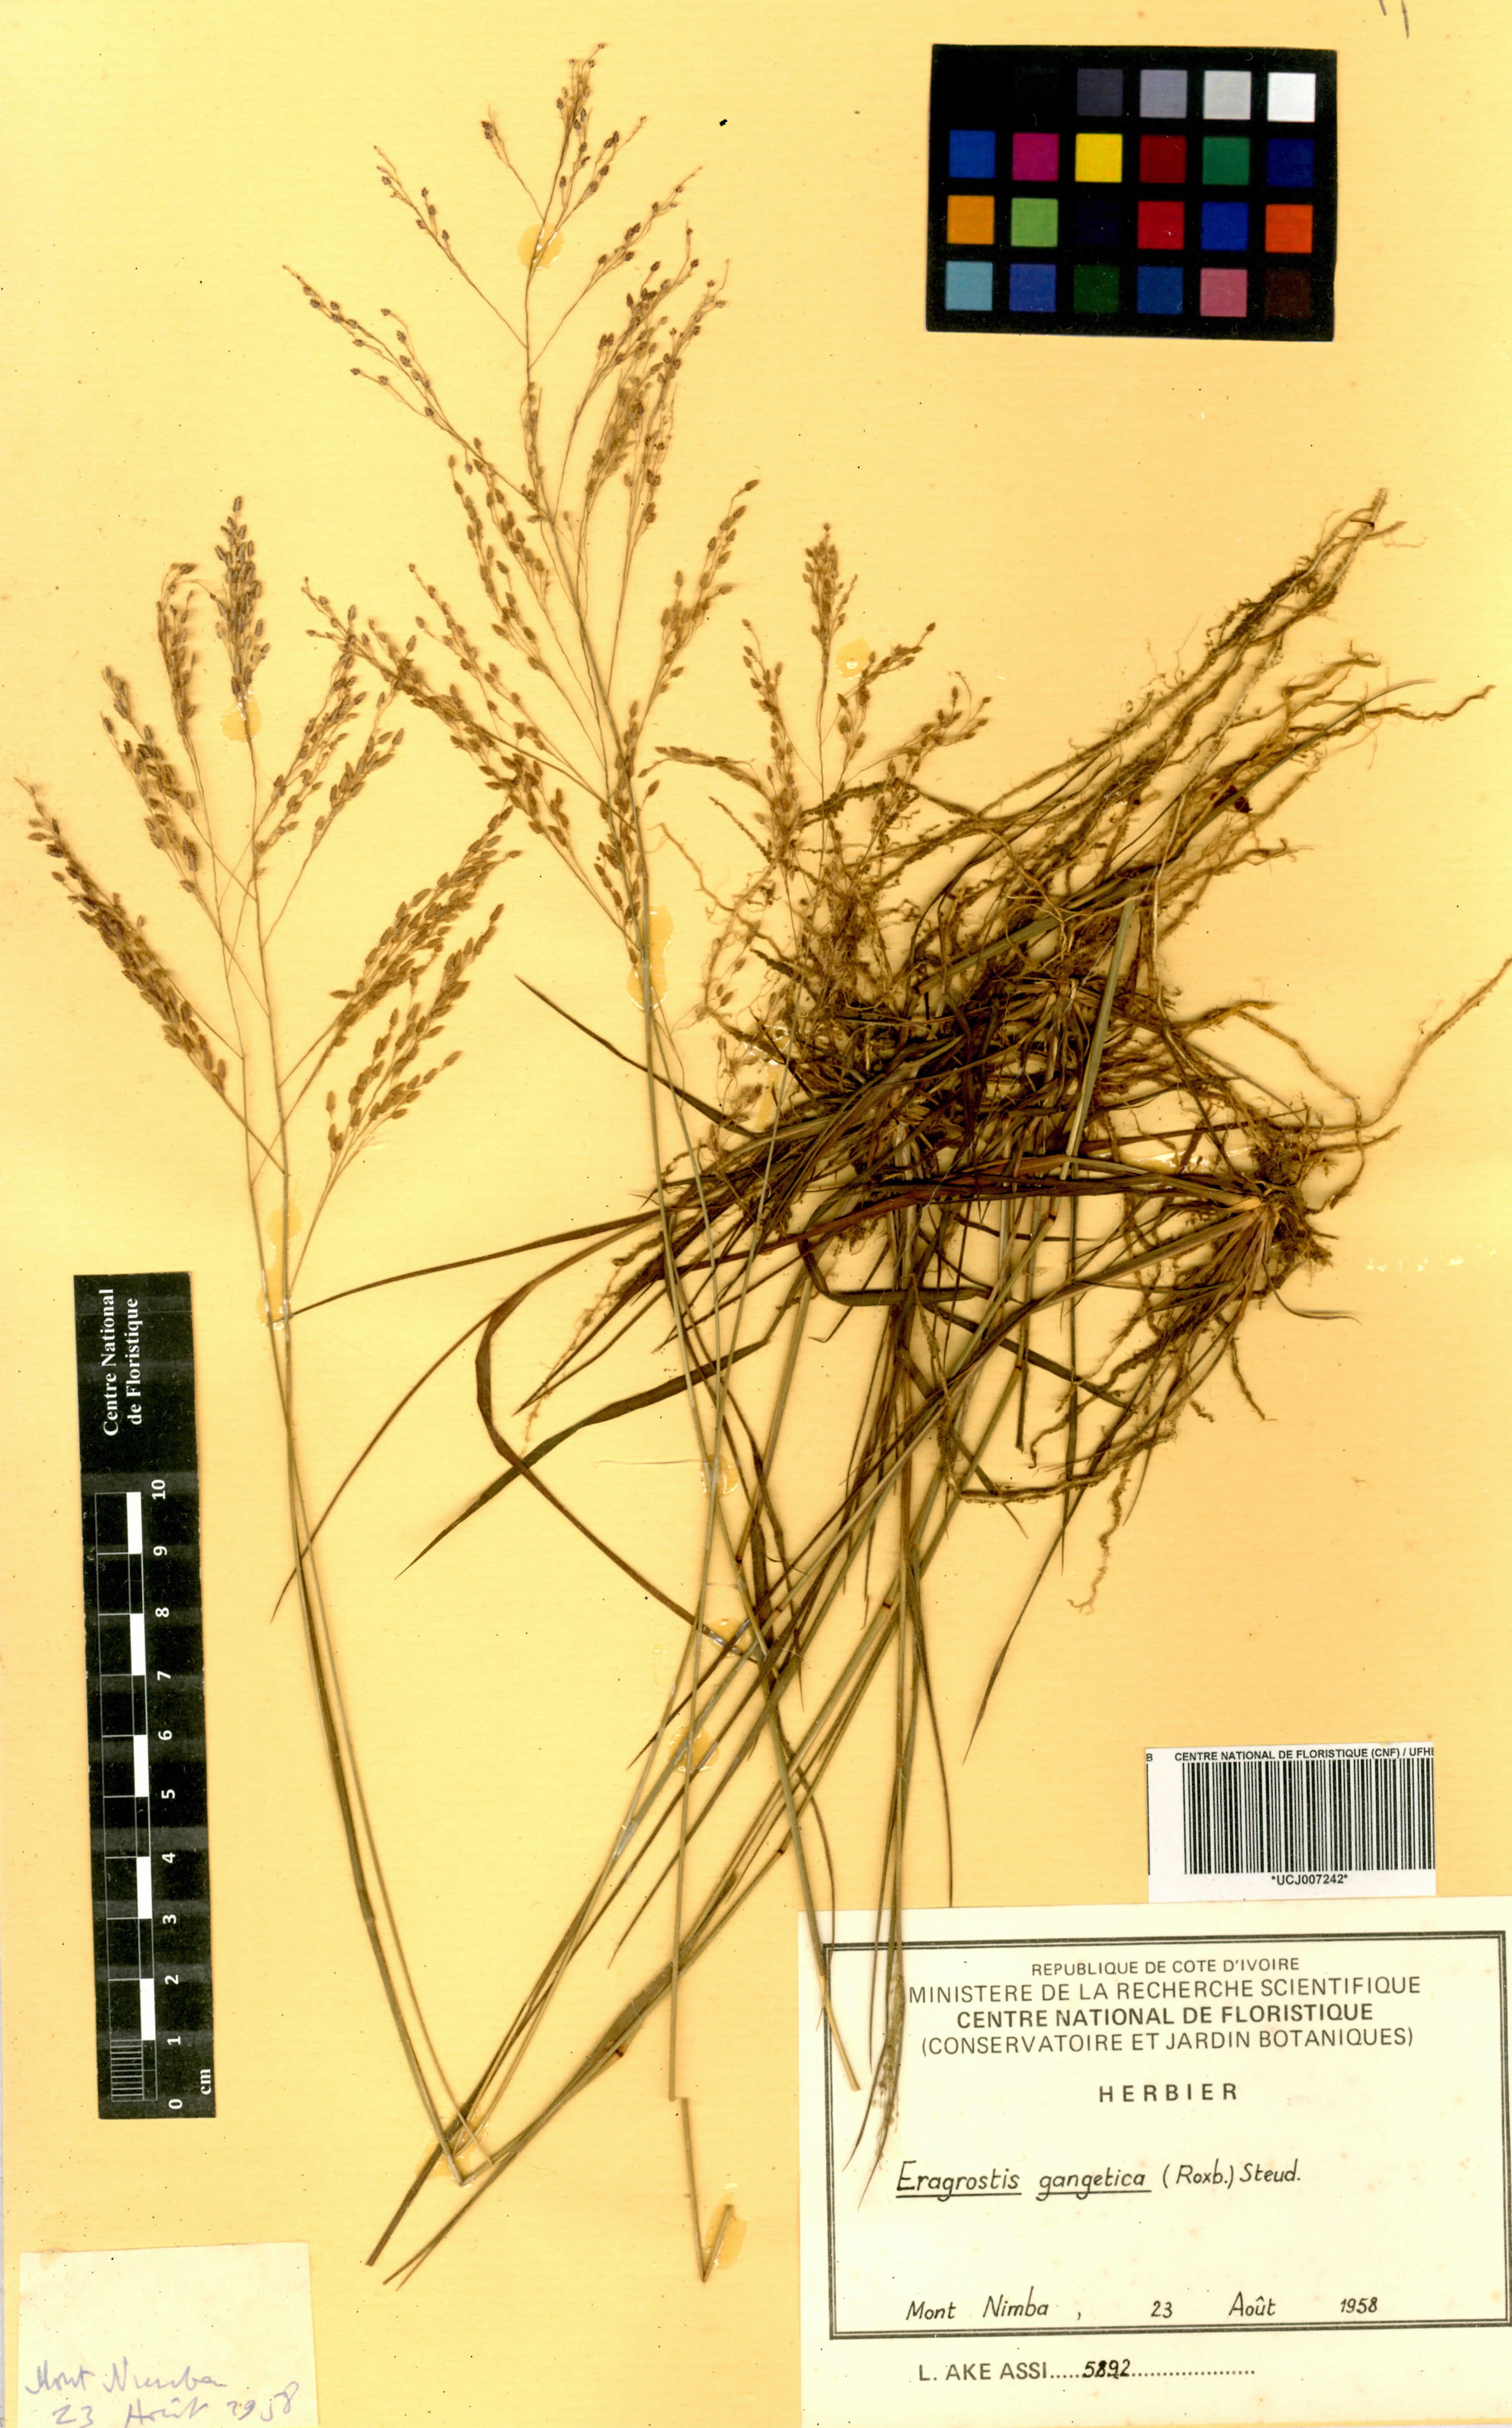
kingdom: Plantae
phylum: Tracheophyta
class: Liliopsida
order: Poales
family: Poaceae
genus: Eragrostis
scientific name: Eragrostis gangetica
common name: Slimflower lovegrass
